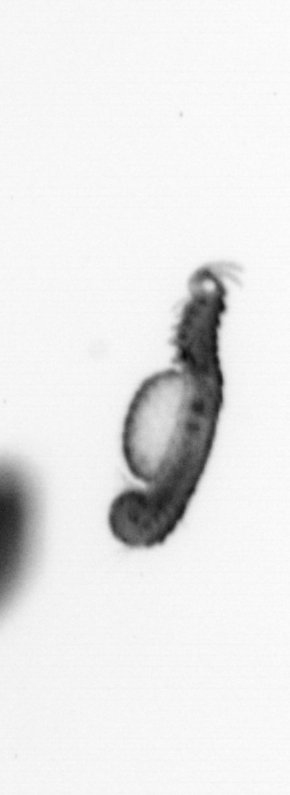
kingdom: Animalia
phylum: Annelida
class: Polychaeta
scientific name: Polychaeta
